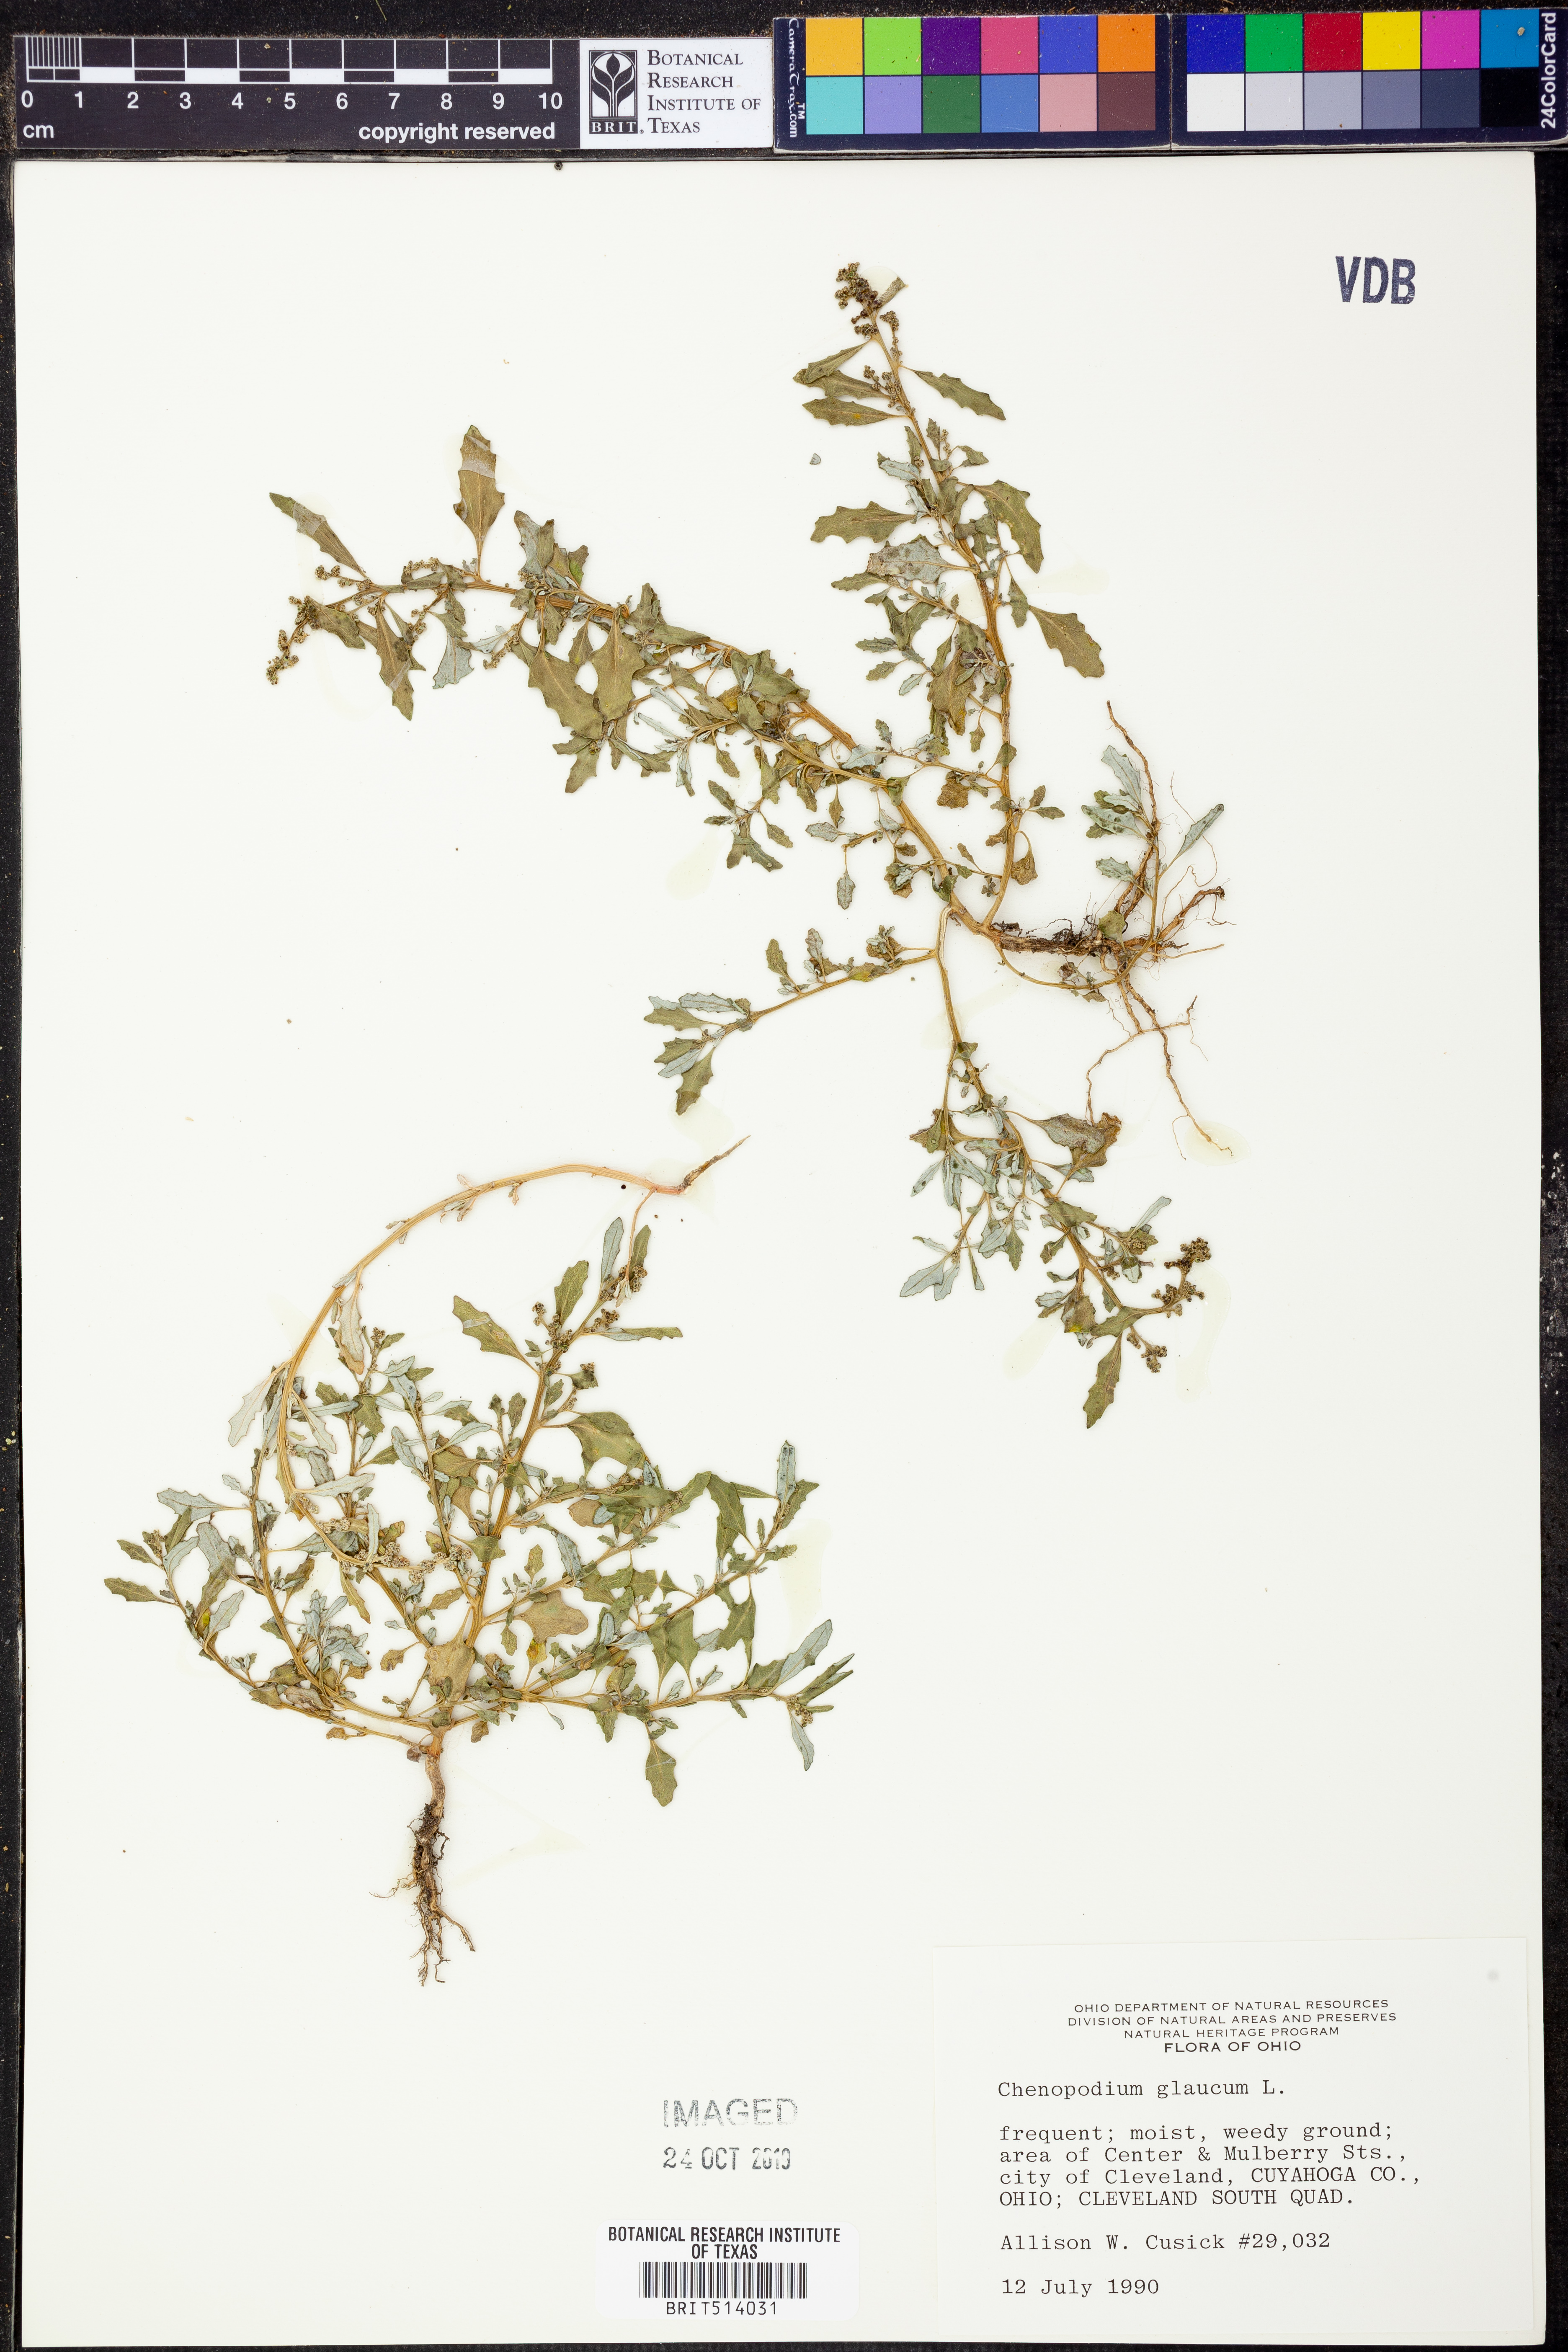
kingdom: Plantae
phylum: Tracheophyta
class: Magnoliopsida
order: Caryophyllales
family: Amaranthaceae
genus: Oxybasis
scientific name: Oxybasis glauca
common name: Glaucous goosefoot
